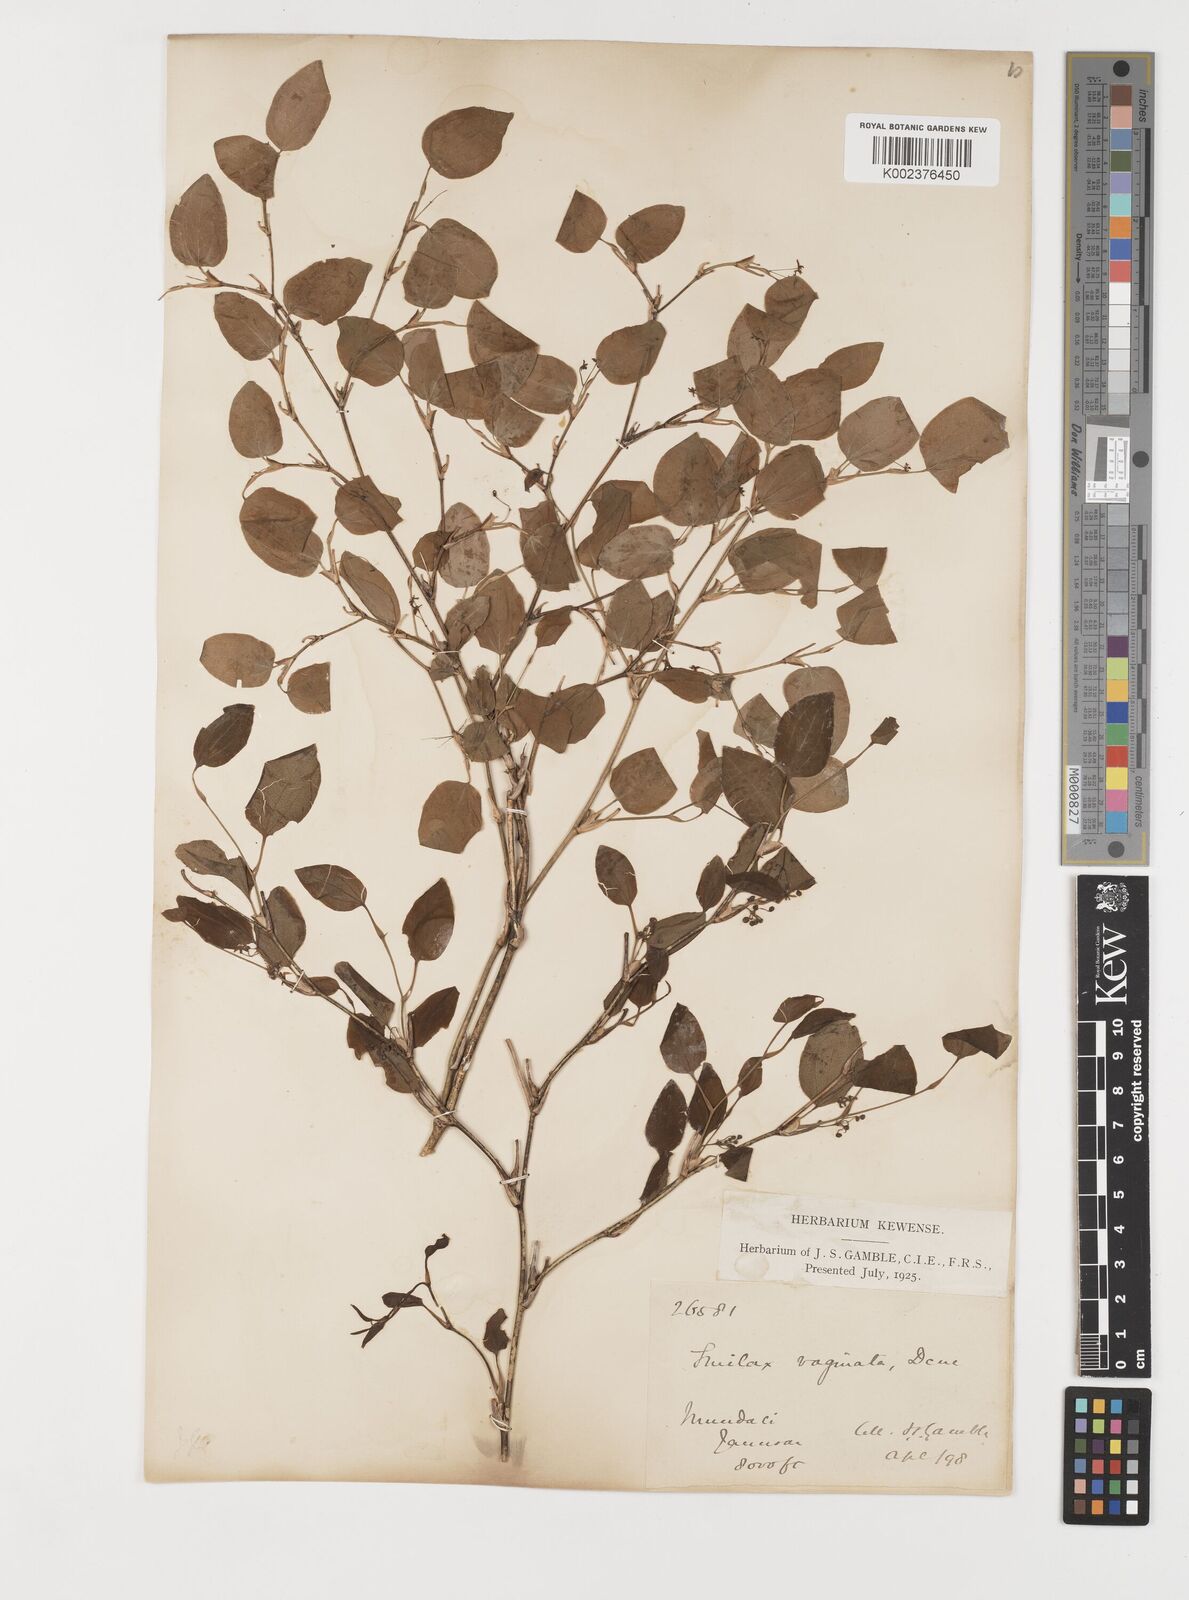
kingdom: Plantae
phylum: Tracheophyta
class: Liliopsida
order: Liliales
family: Smilacaceae
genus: Smilax
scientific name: Smilax vaginata
